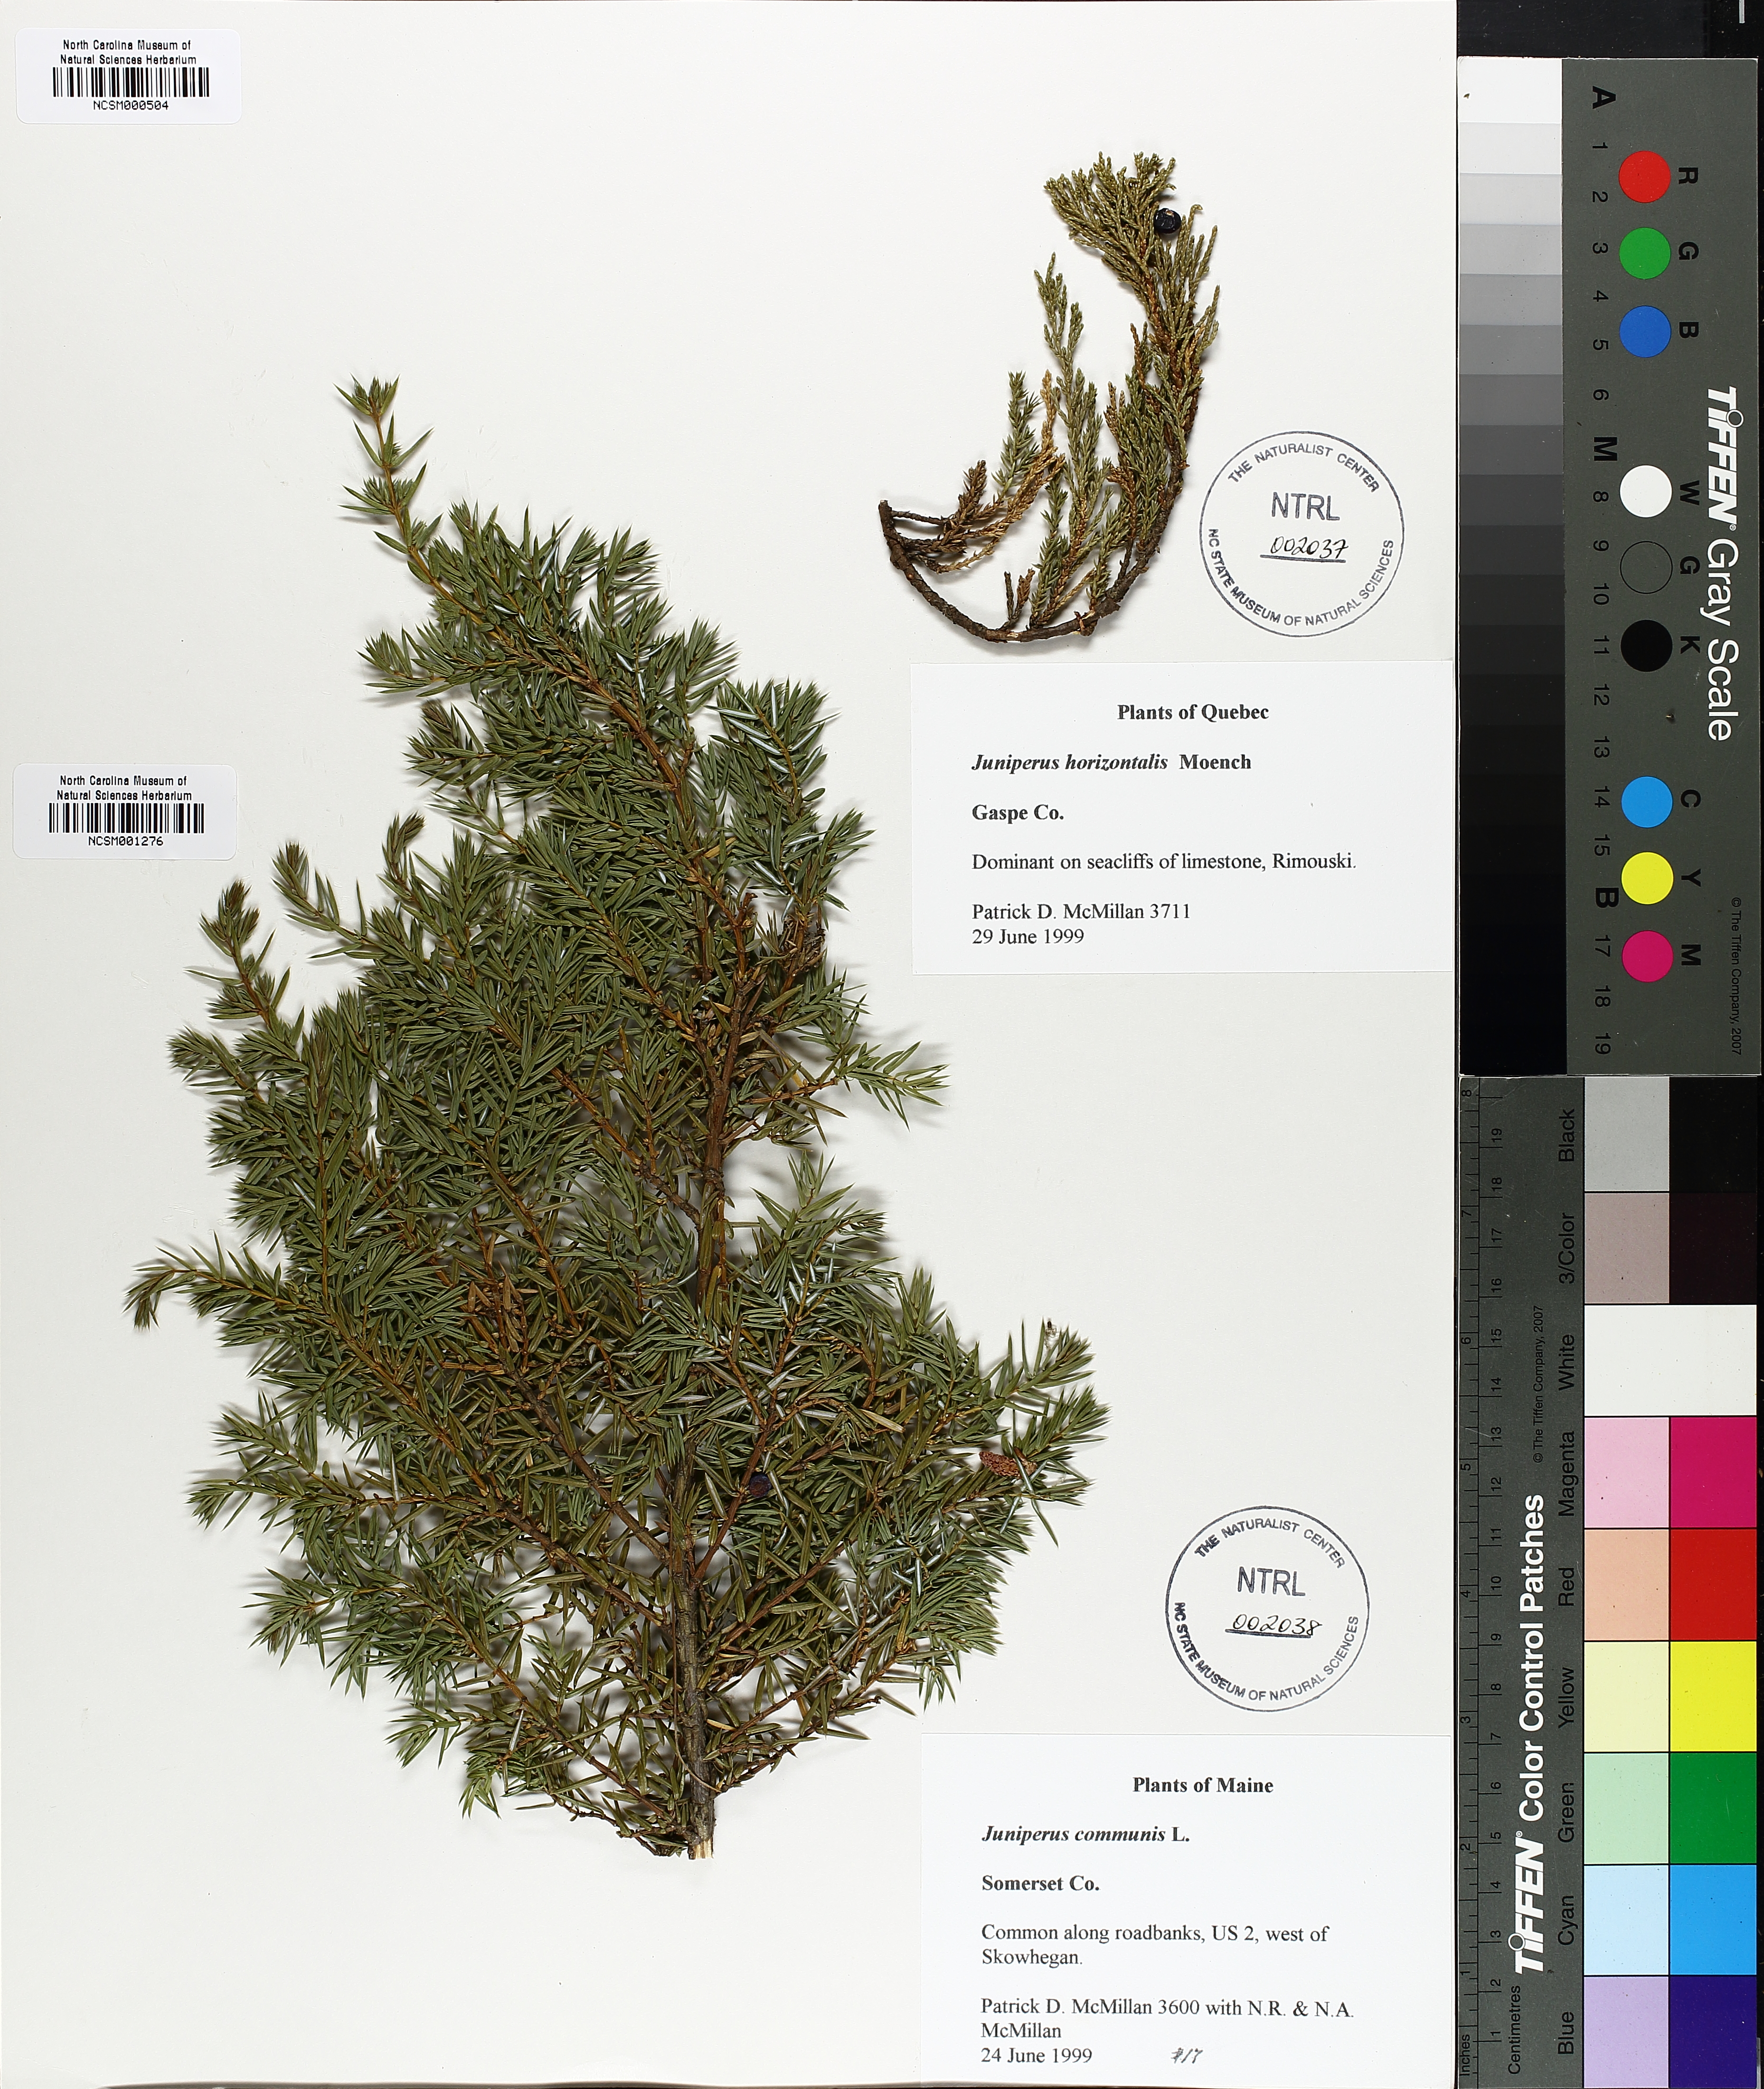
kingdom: Plantae
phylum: Tracheophyta
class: Pinopsida
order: Pinales
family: Cupressaceae
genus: Juniperus
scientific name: Juniperus horizontalis
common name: Creeping juniper
